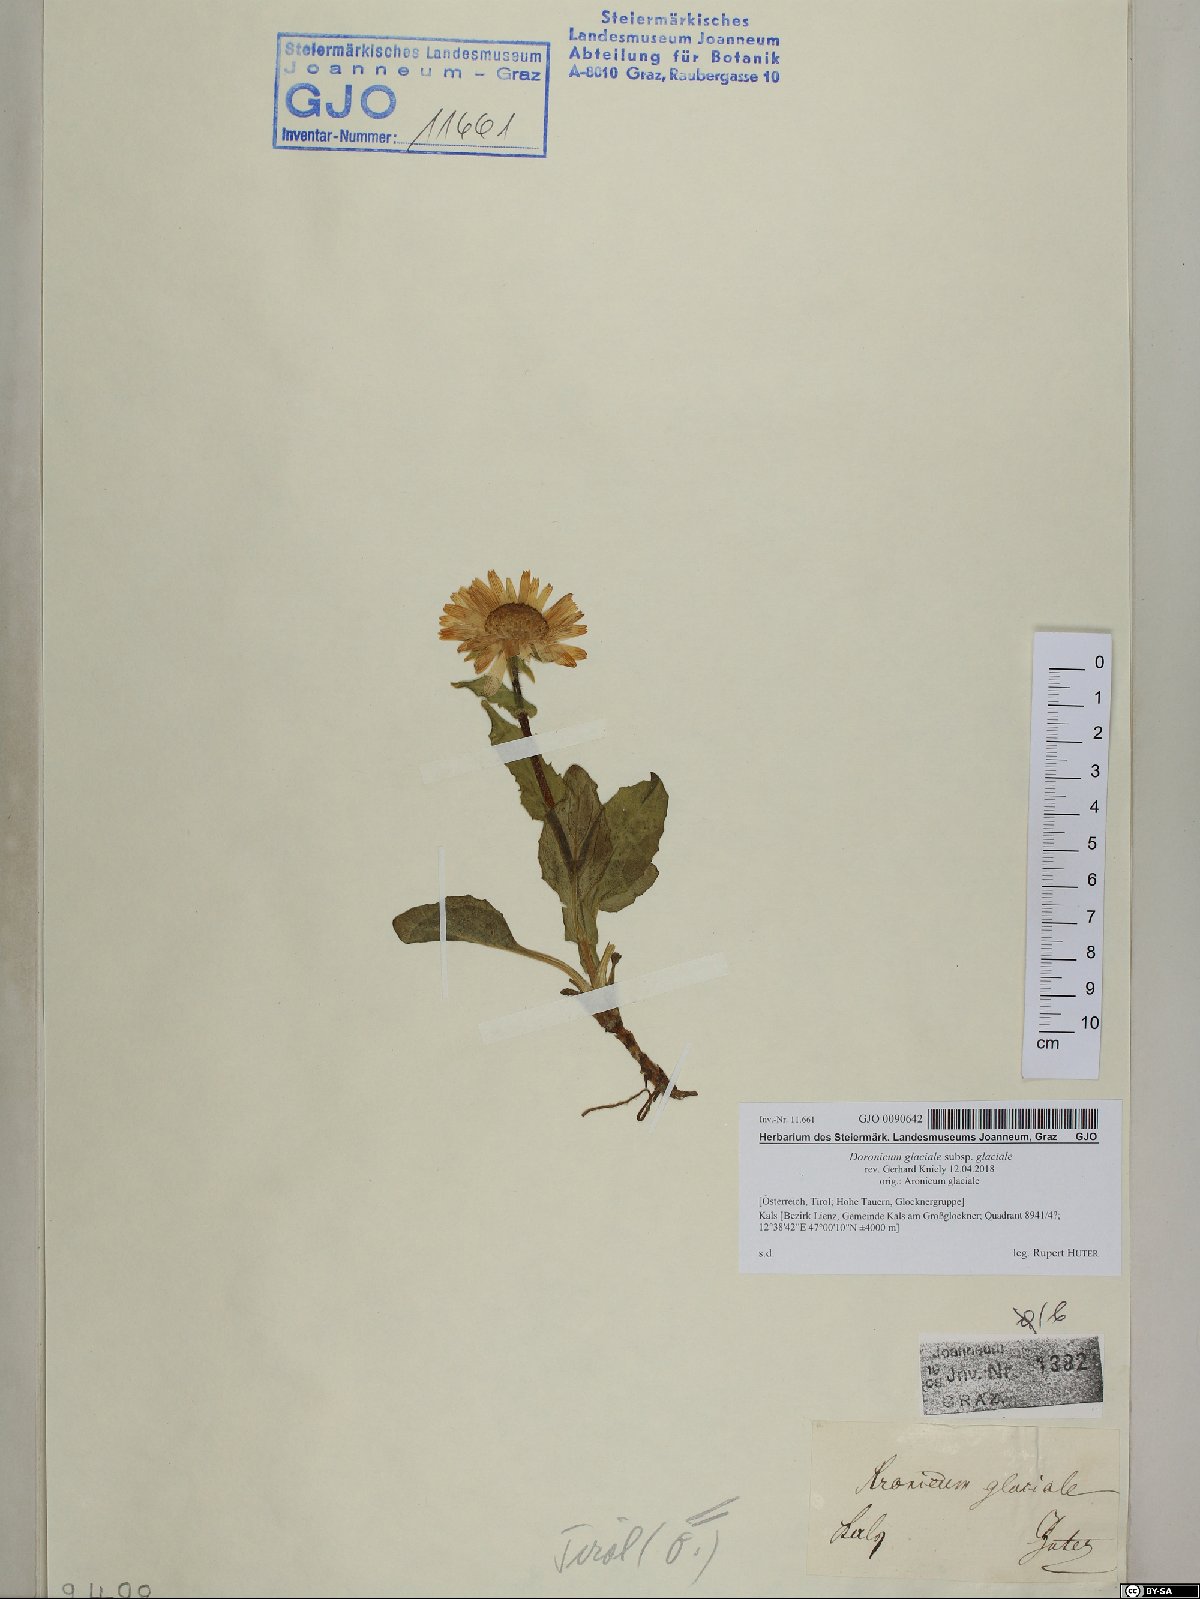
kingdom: Plantae
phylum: Tracheophyta
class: Magnoliopsida
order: Asterales
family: Asteraceae
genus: Doronicum
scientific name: Doronicum glaciale
